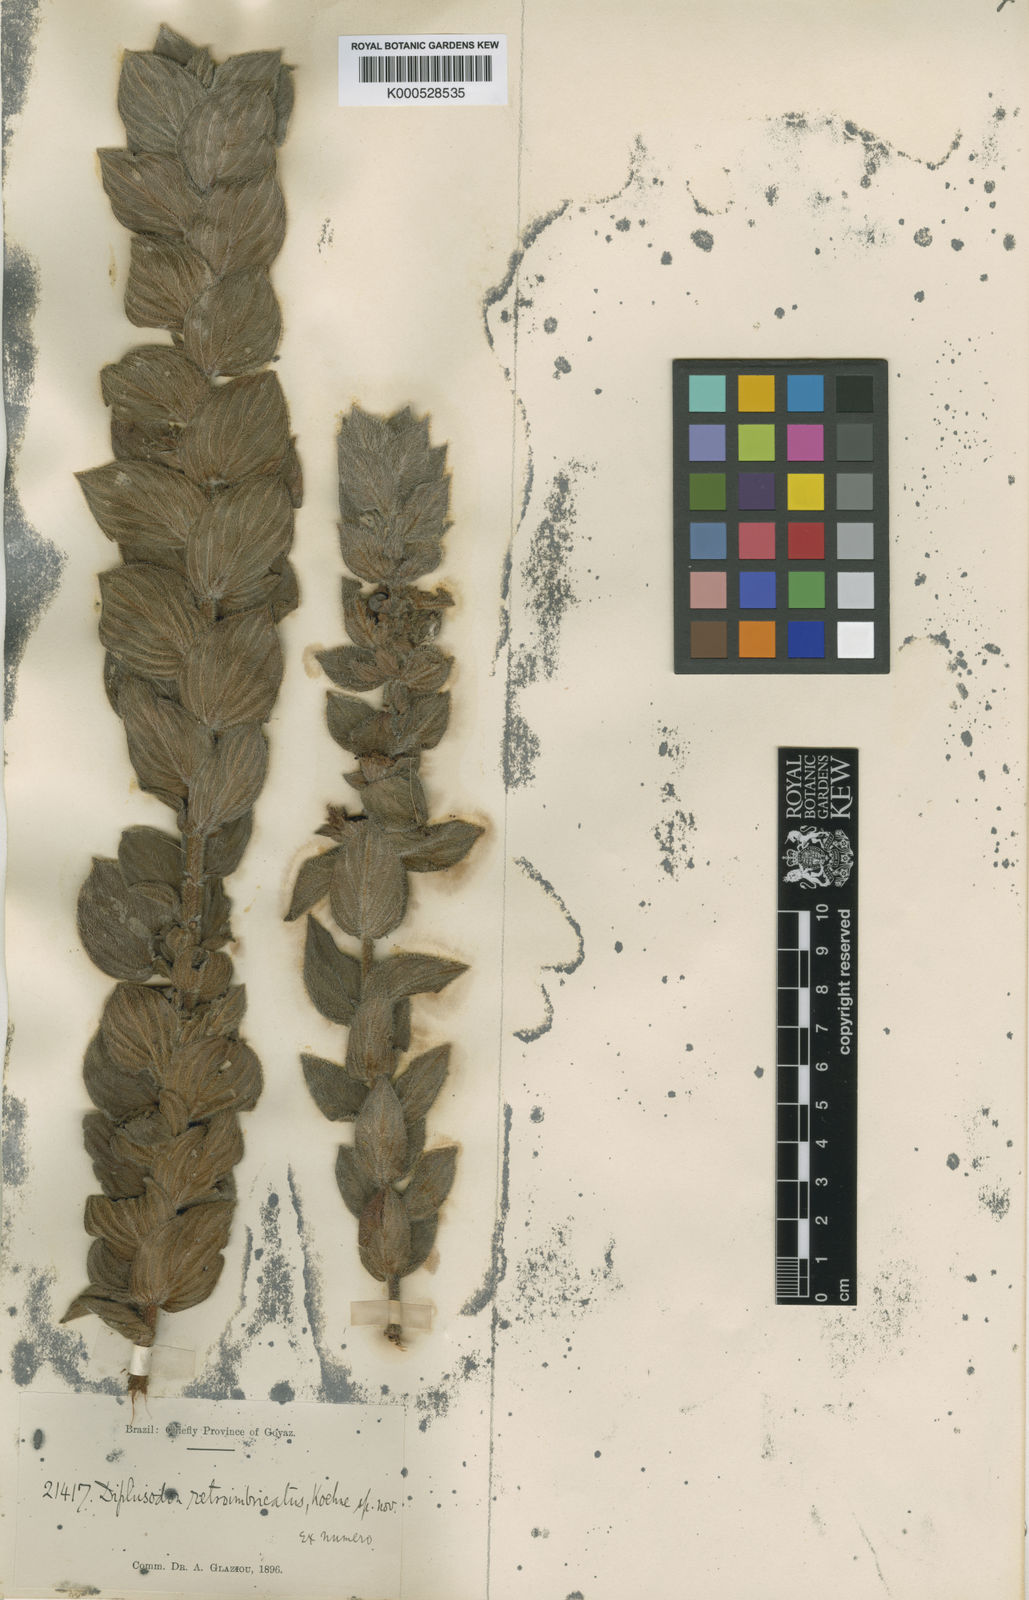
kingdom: Plantae
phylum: Tracheophyta
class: Magnoliopsida
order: Myrtales
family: Lythraceae
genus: Diplusodon
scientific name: Diplusodon retroimbricatus
